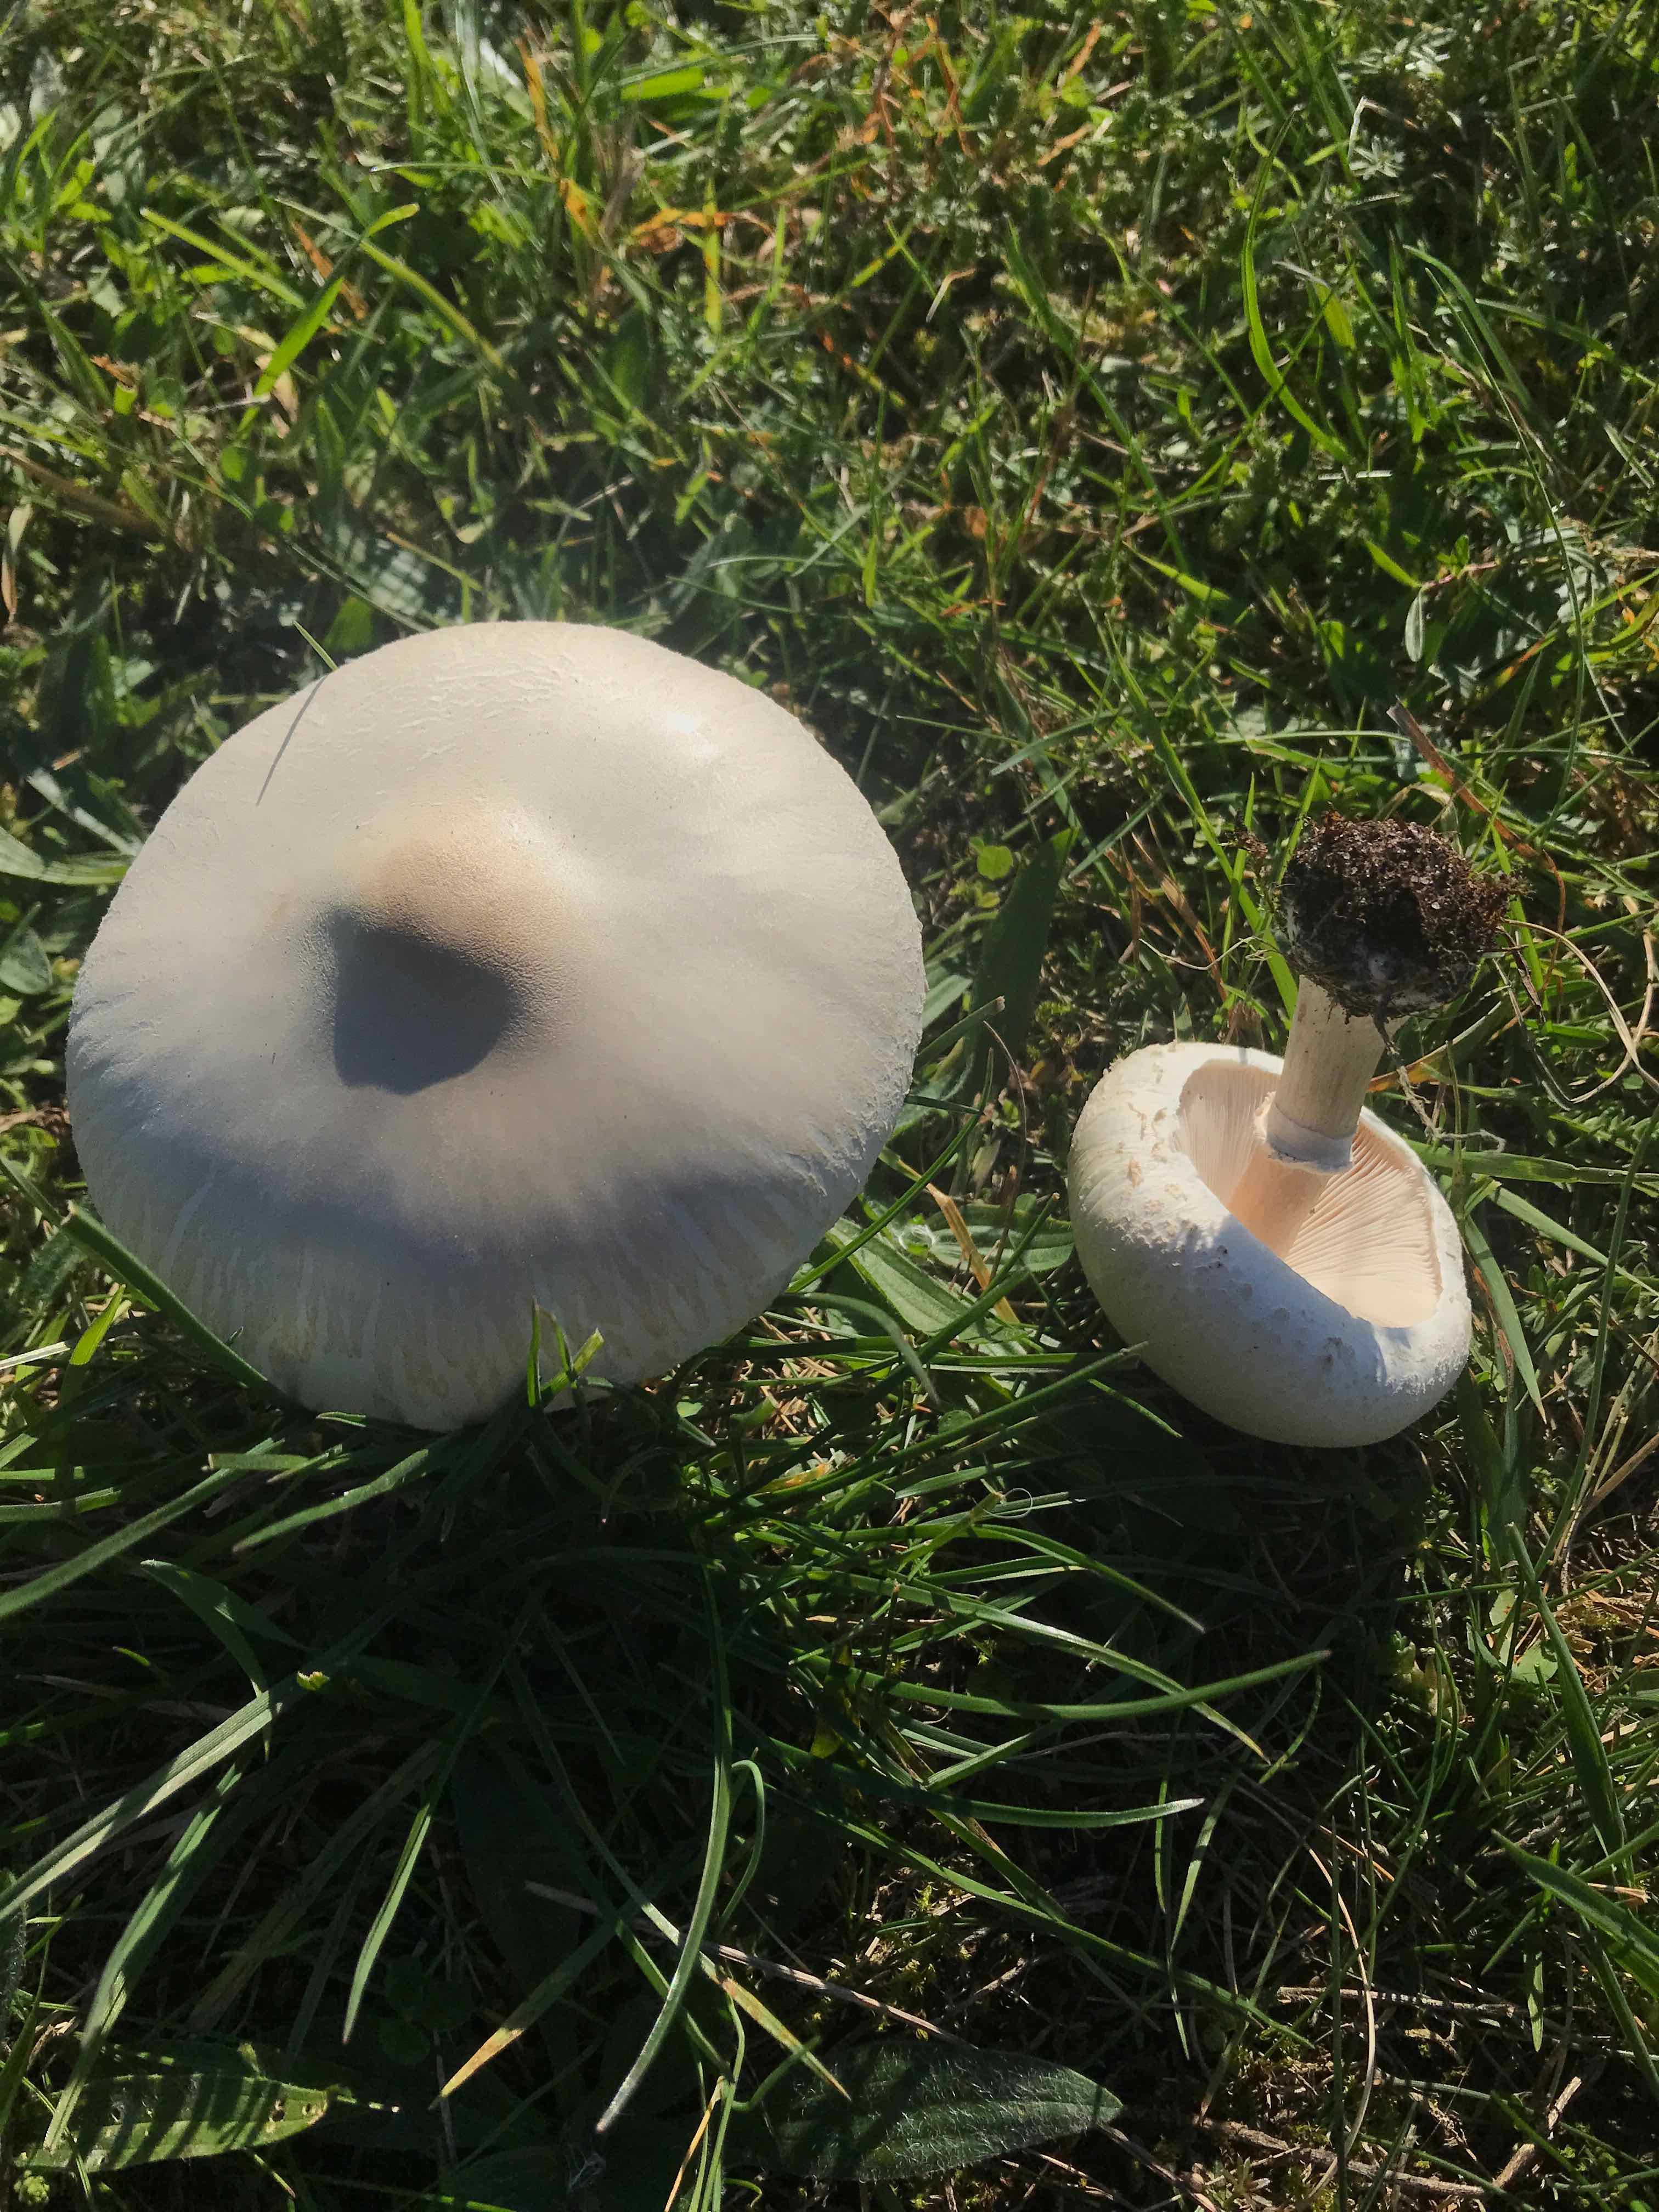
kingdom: Fungi
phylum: Basidiomycota
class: Agaricomycetes
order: Agaricales
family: Agaricaceae
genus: Macrolepiota
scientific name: Macrolepiota excoriata
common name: mark-kæmpeparasolhat
